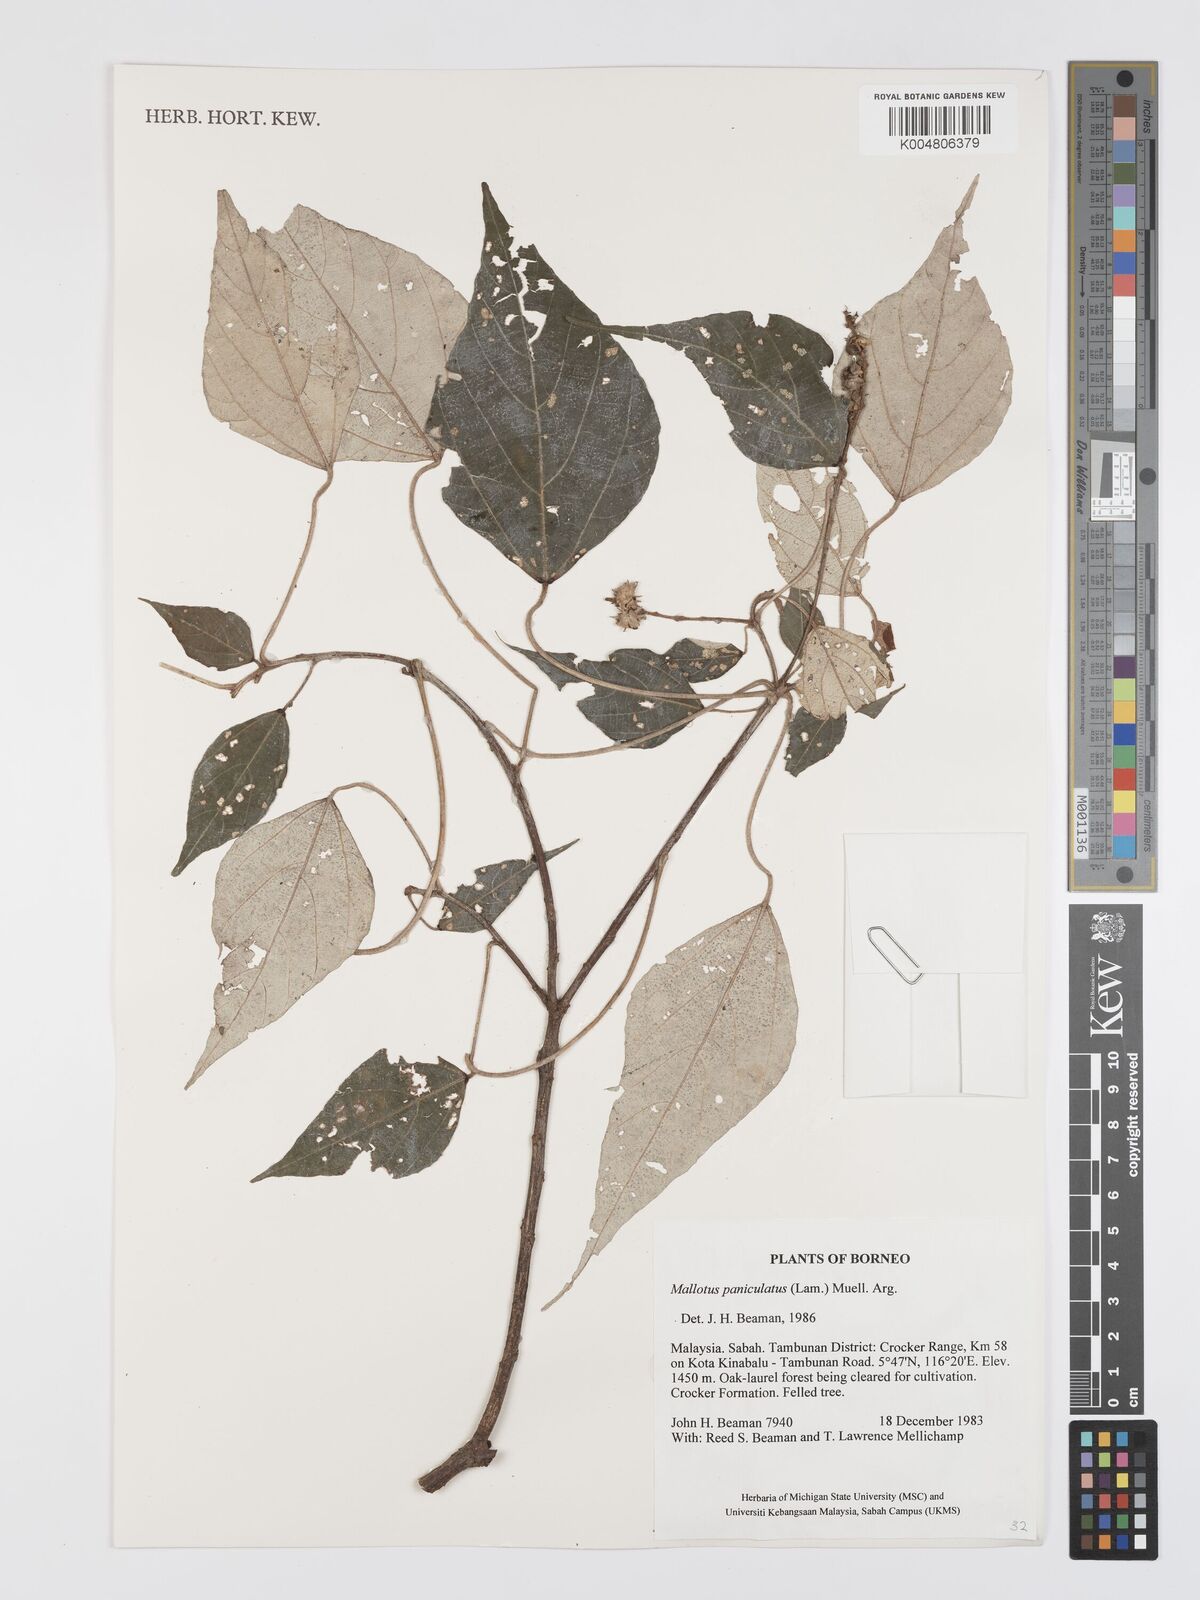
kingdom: Plantae
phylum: Tracheophyta
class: Magnoliopsida
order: Malpighiales
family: Euphorbiaceae
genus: Mallotus
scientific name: Mallotus paniculatus
